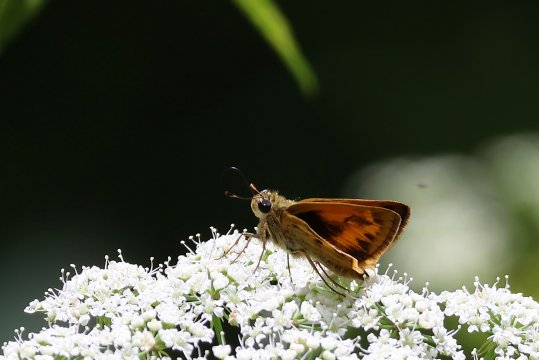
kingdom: Animalia
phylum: Arthropoda
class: Insecta
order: Lepidoptera
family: Hesperiidae
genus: Polites
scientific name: Polites vibex
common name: Whirlabout
